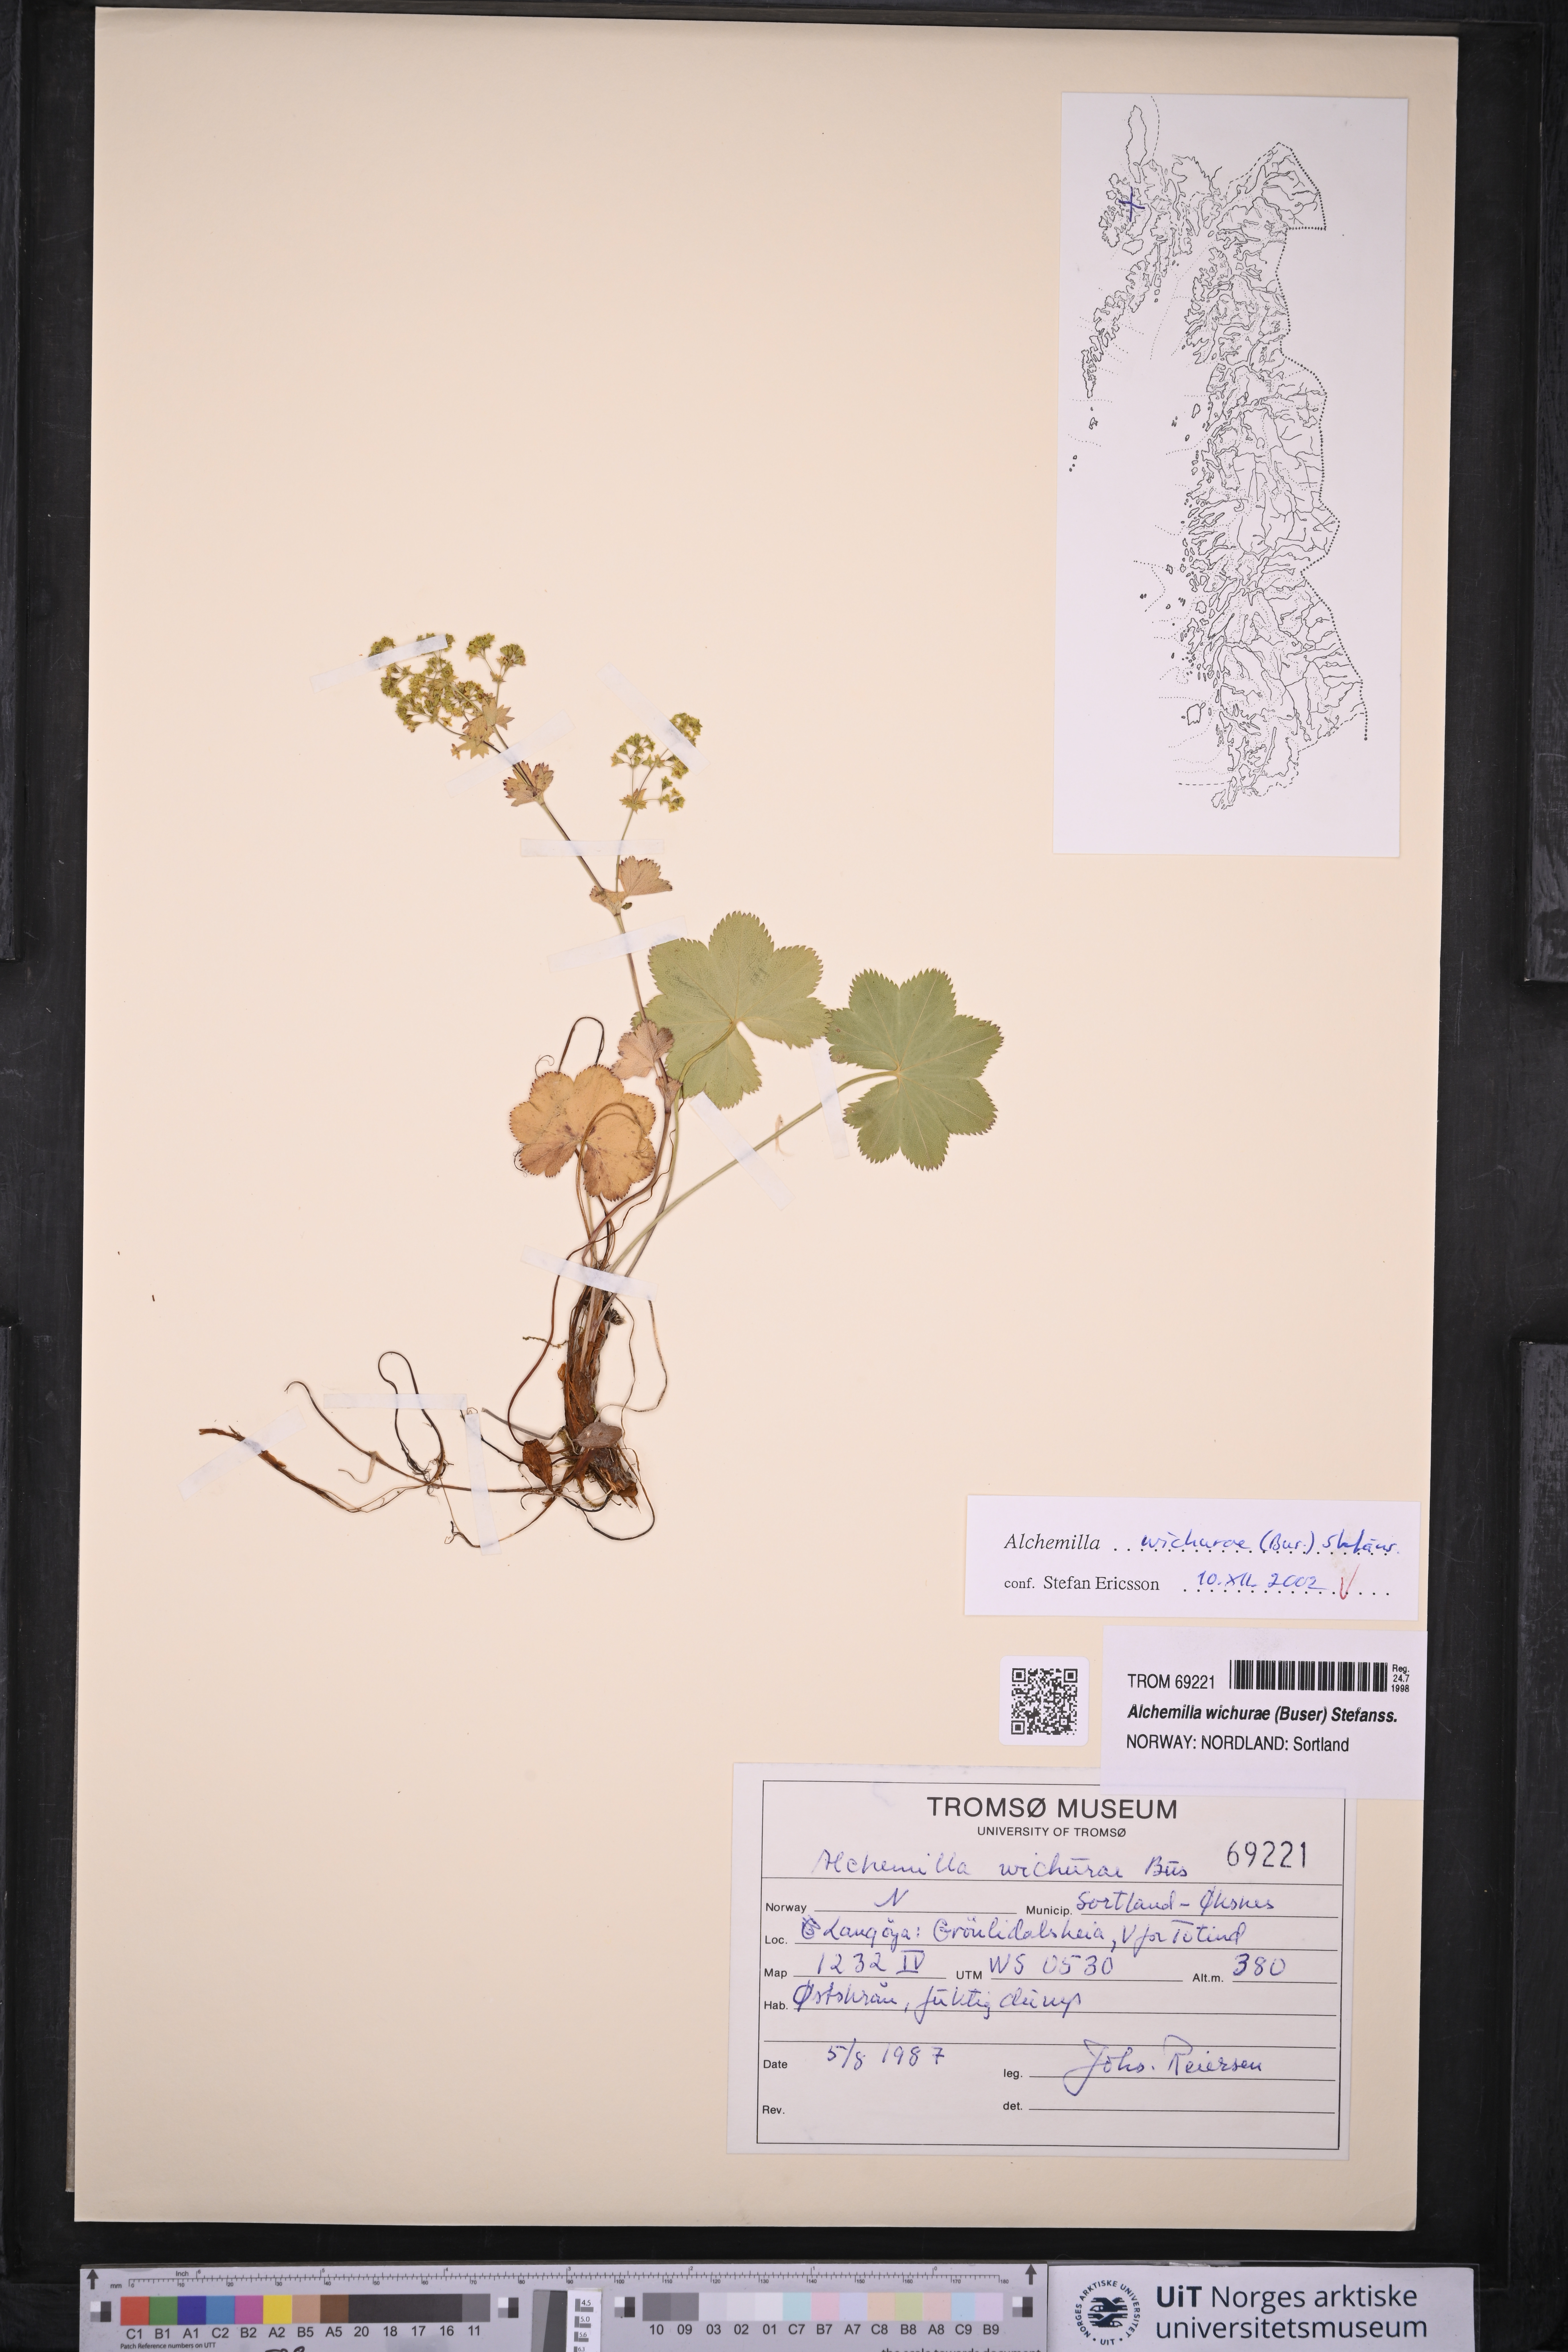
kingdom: Plantae
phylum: Tracheophyta
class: Magnoliopsida
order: Rosales
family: Rosaceae
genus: Alchemilla
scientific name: Alchemilla wichurae
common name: Rock lady's mantle
